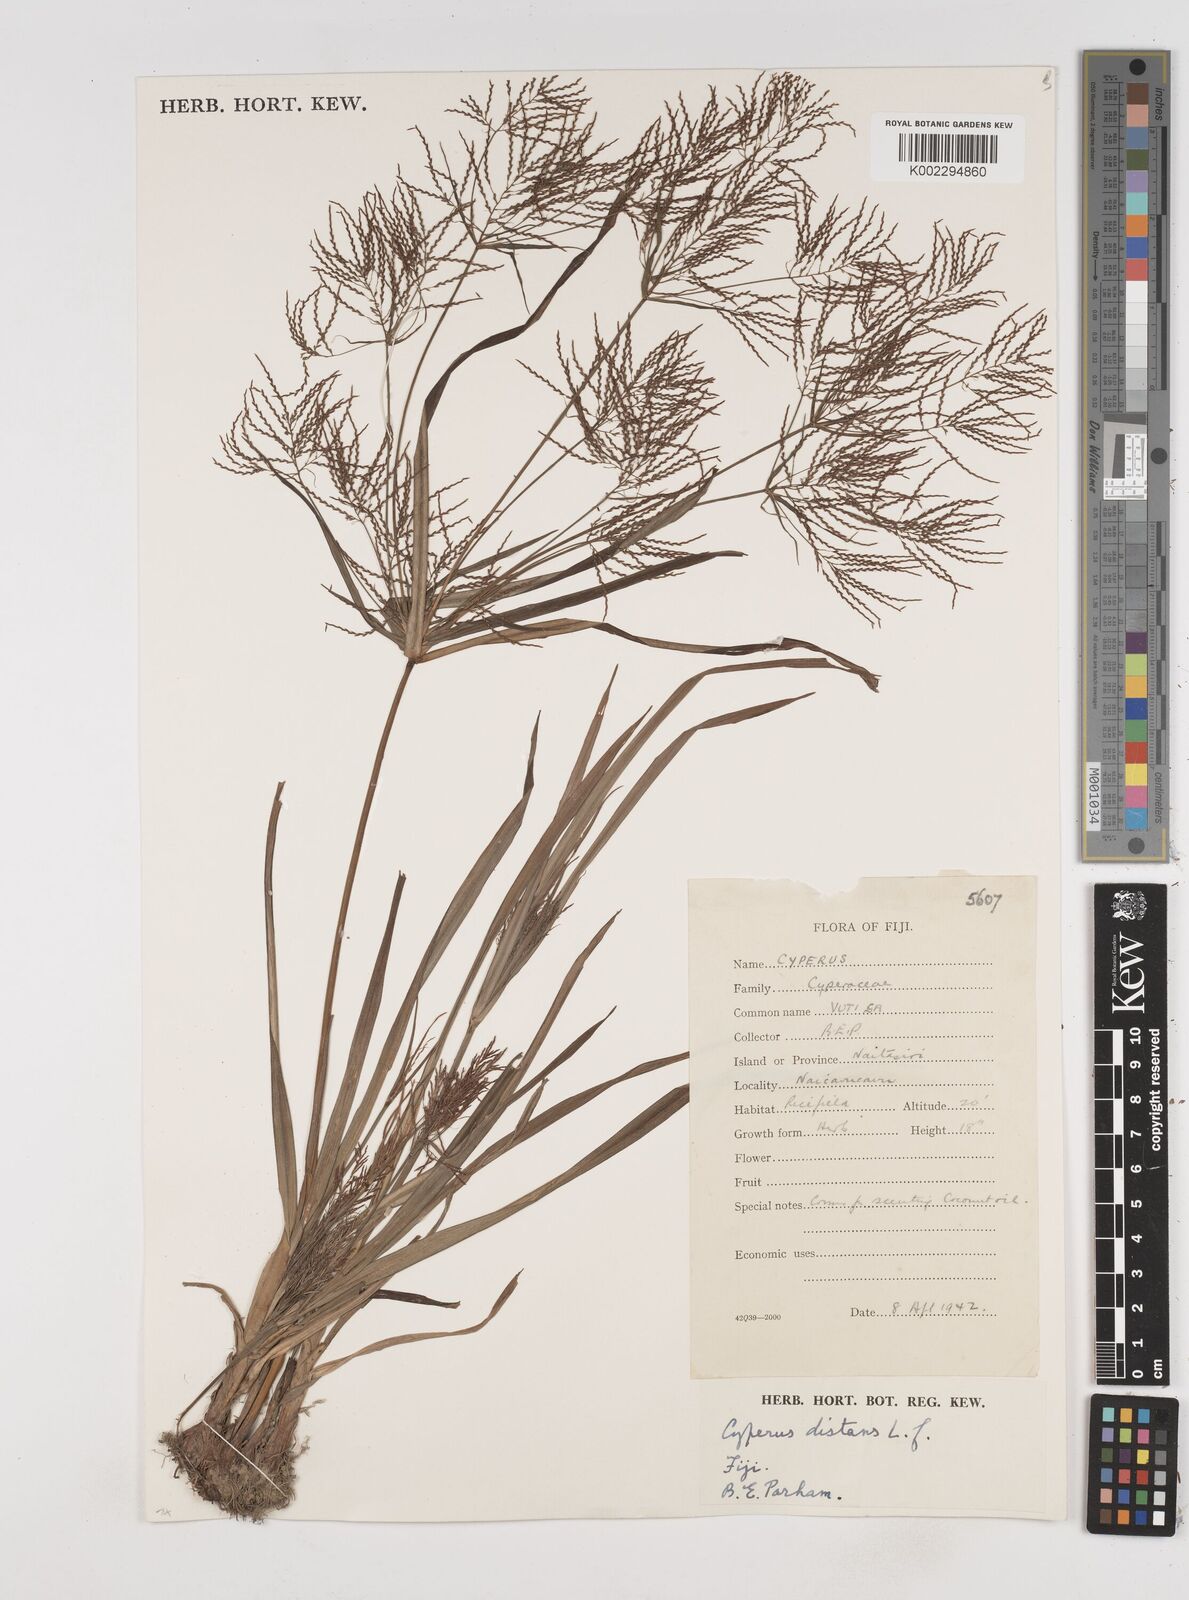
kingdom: Plantae
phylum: Tracheophyta
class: Liliopsida
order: Poales
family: Cyperaceae
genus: Cyperus
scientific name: Cyperus distans
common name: Slender cyperus
